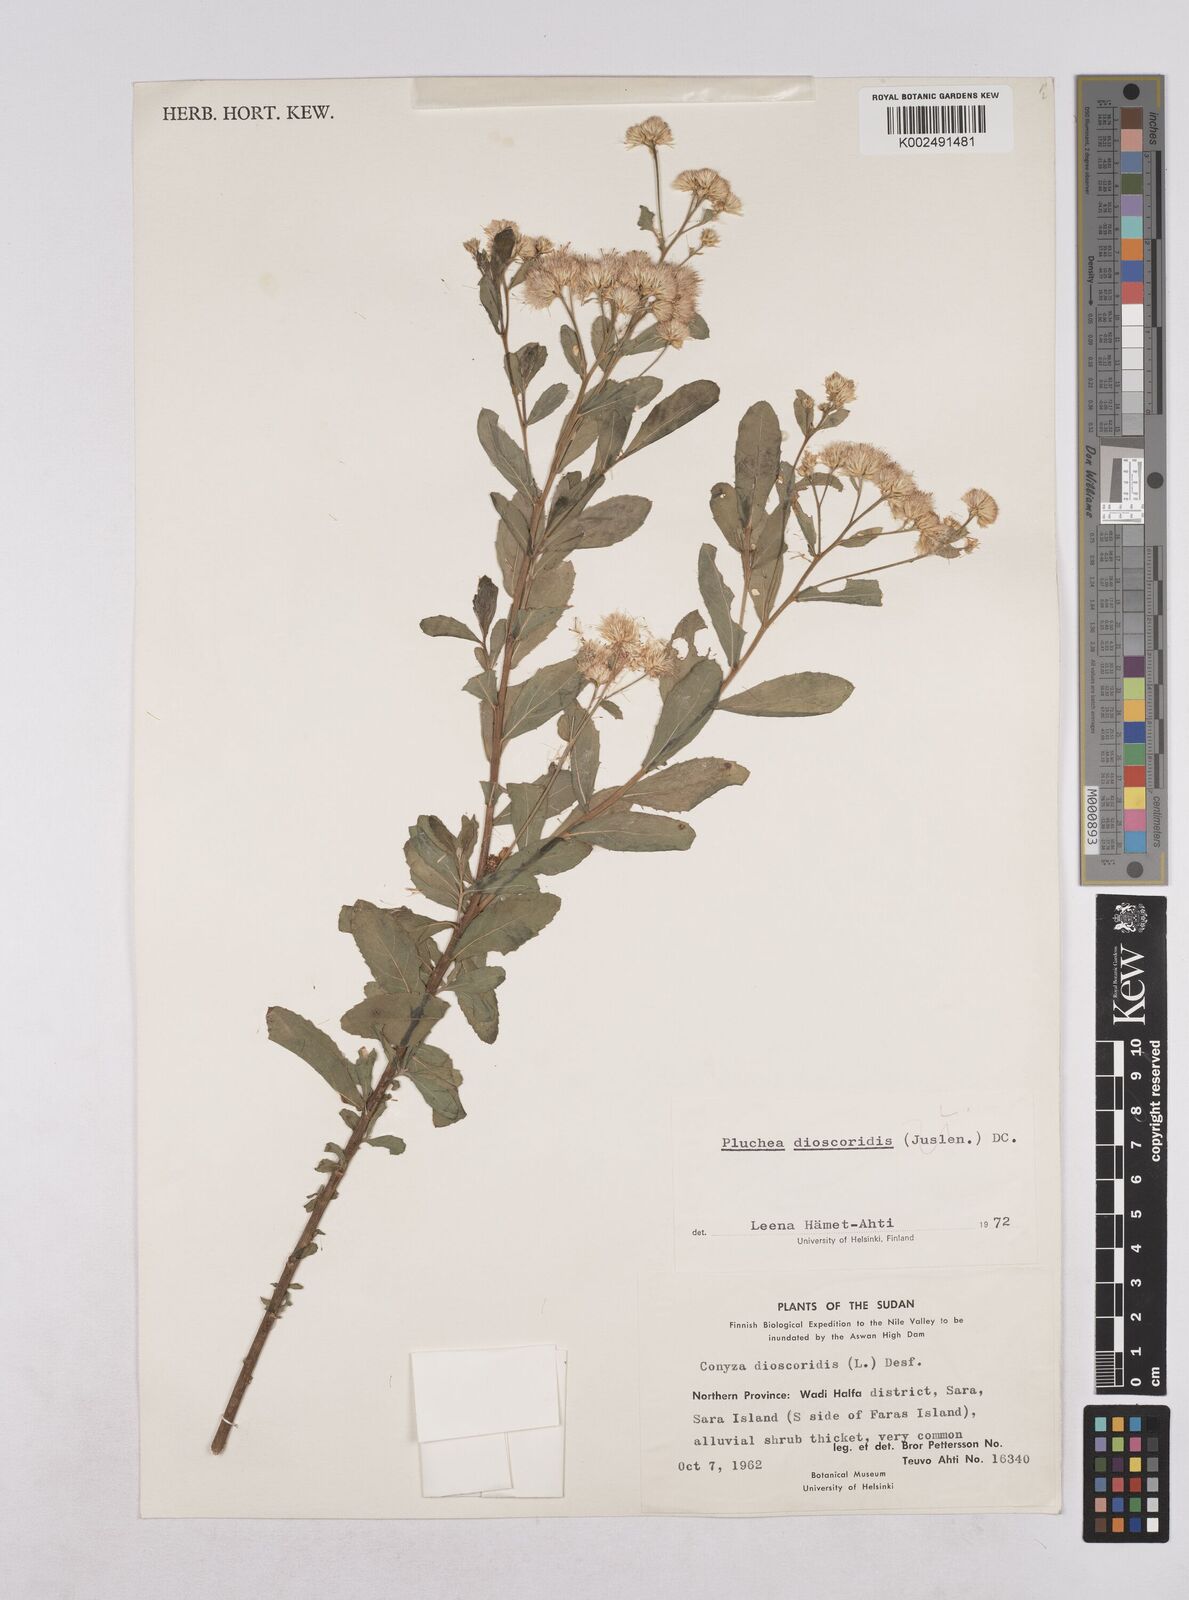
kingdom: Plantae
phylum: Tracheophyta
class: Magnoliopsida
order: Asterales
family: Asteraceae
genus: Pluchea
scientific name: Pluchea dioscoridis
